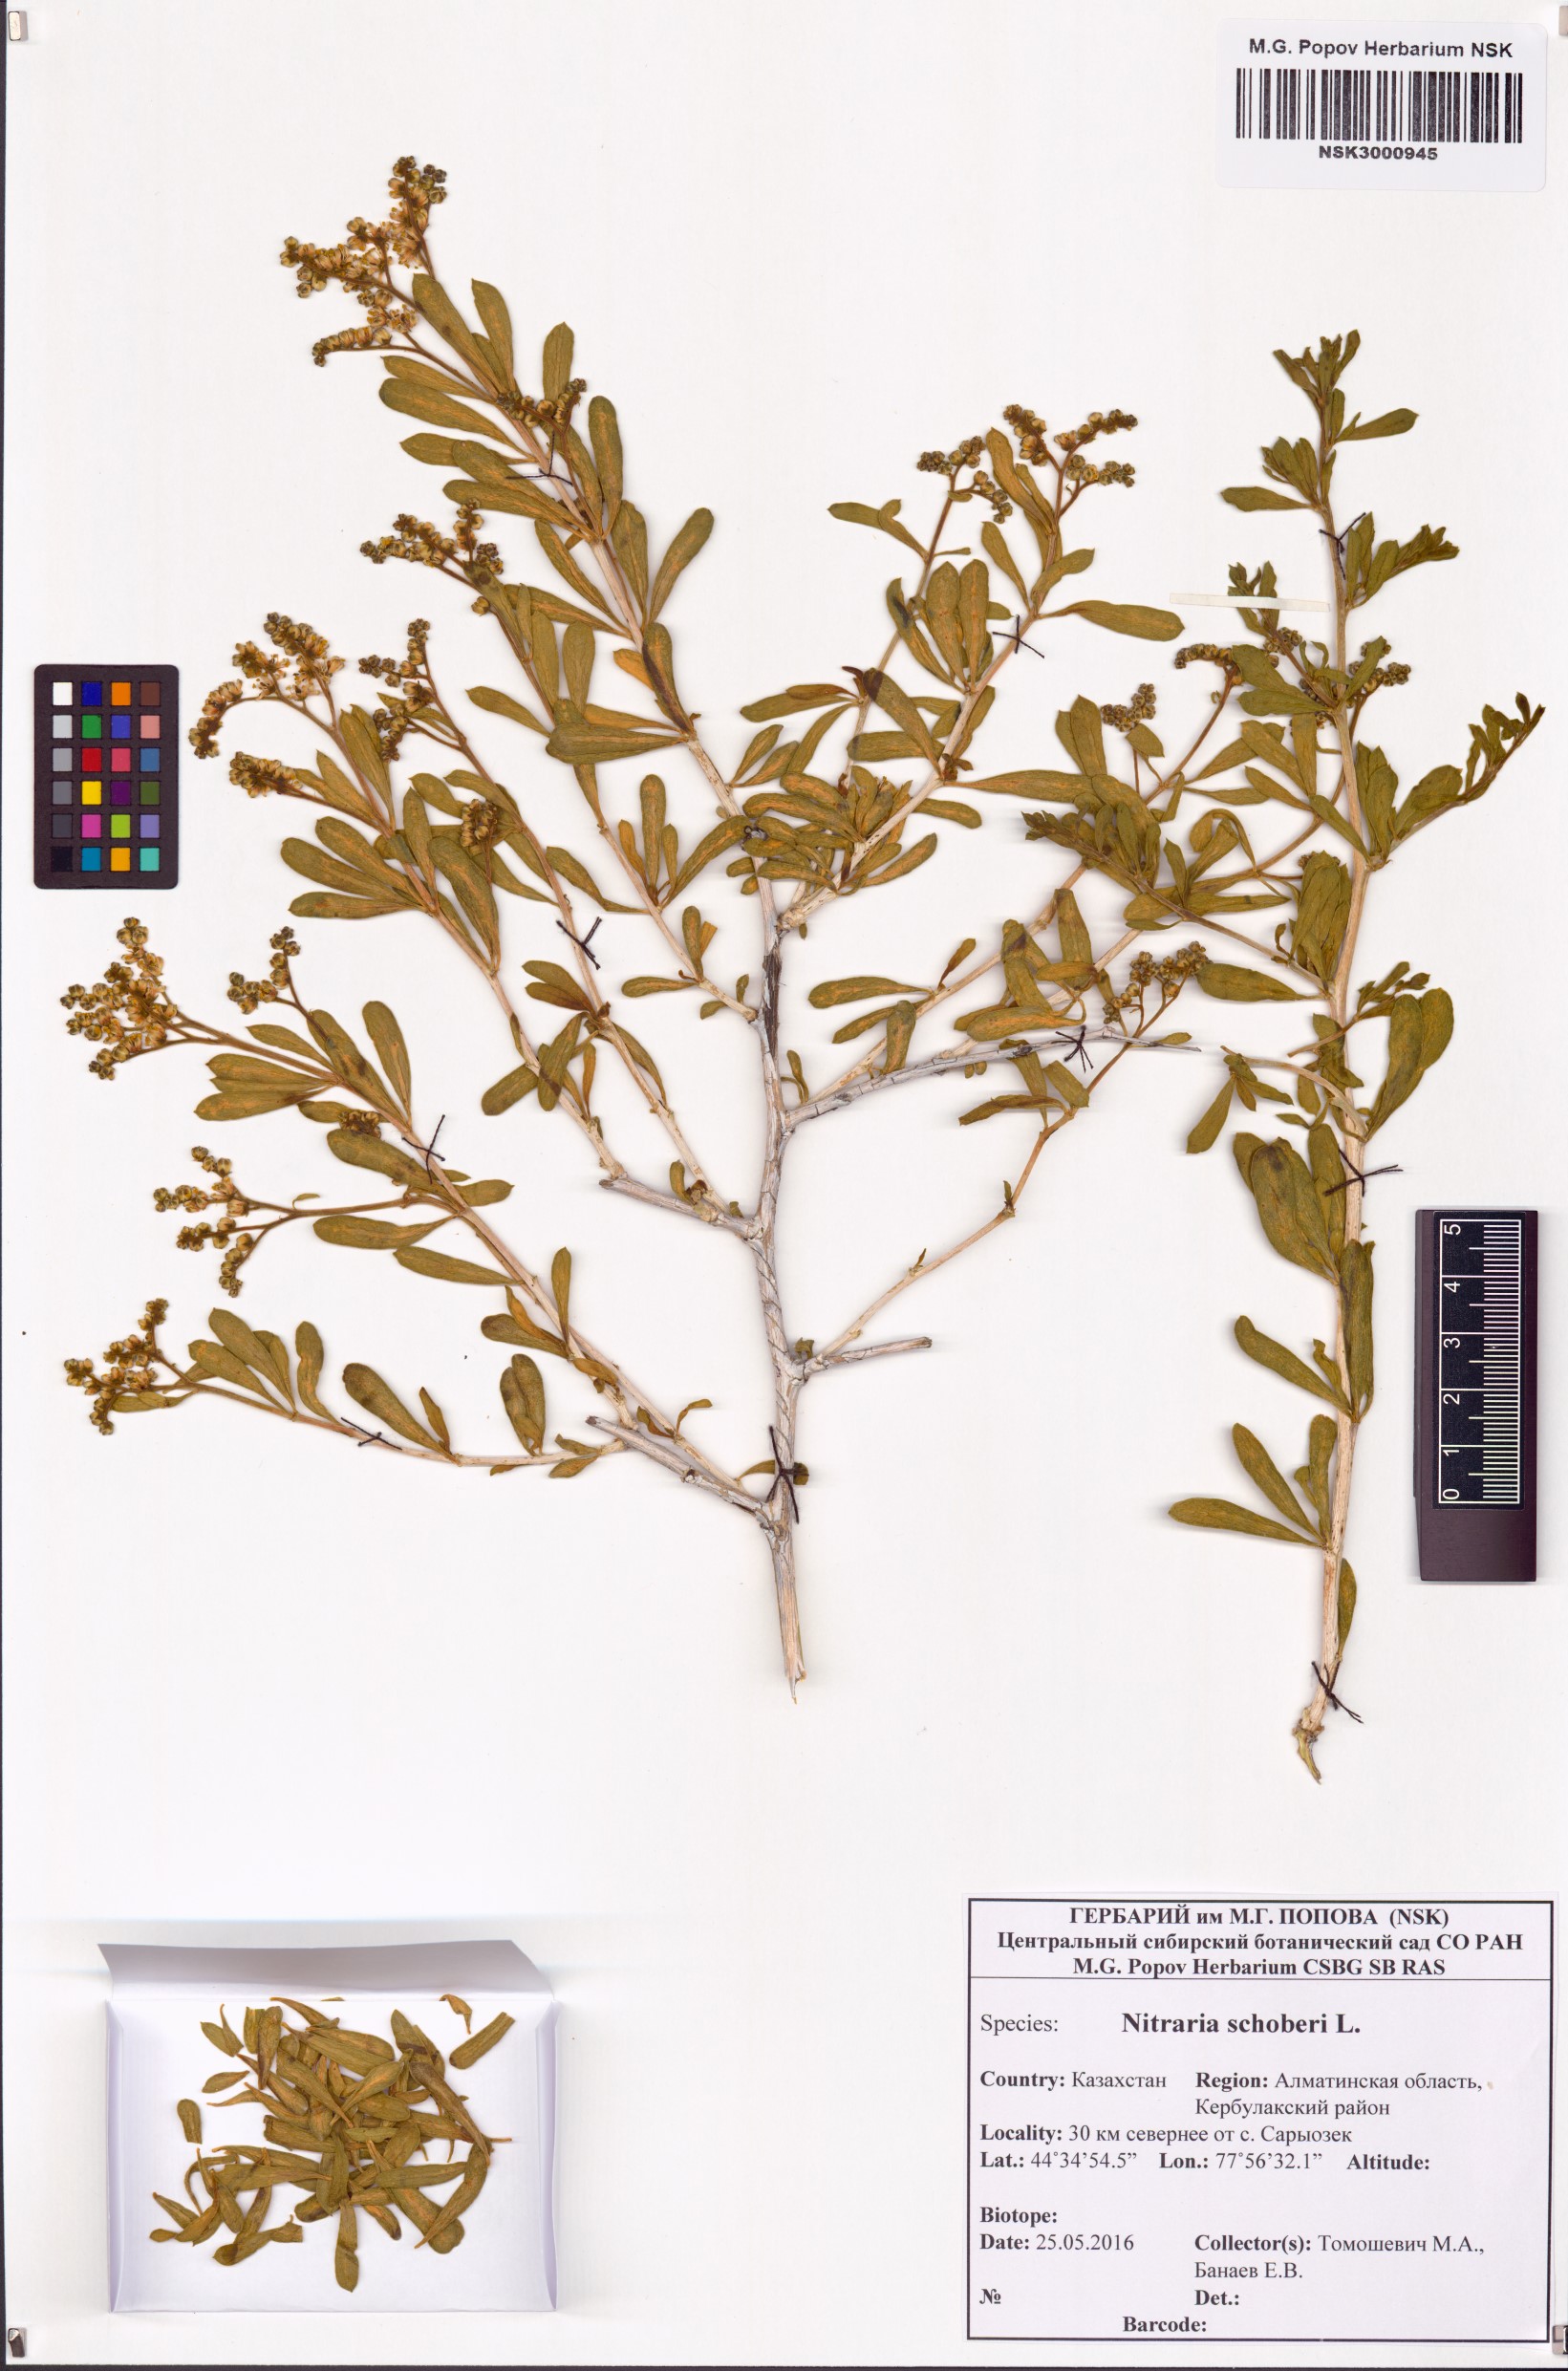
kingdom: Plantae
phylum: Tracheophyta
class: Magnoliopsida
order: Sapindales
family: Nitrariaceae
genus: Nitraria
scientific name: Nitraria schoberi
